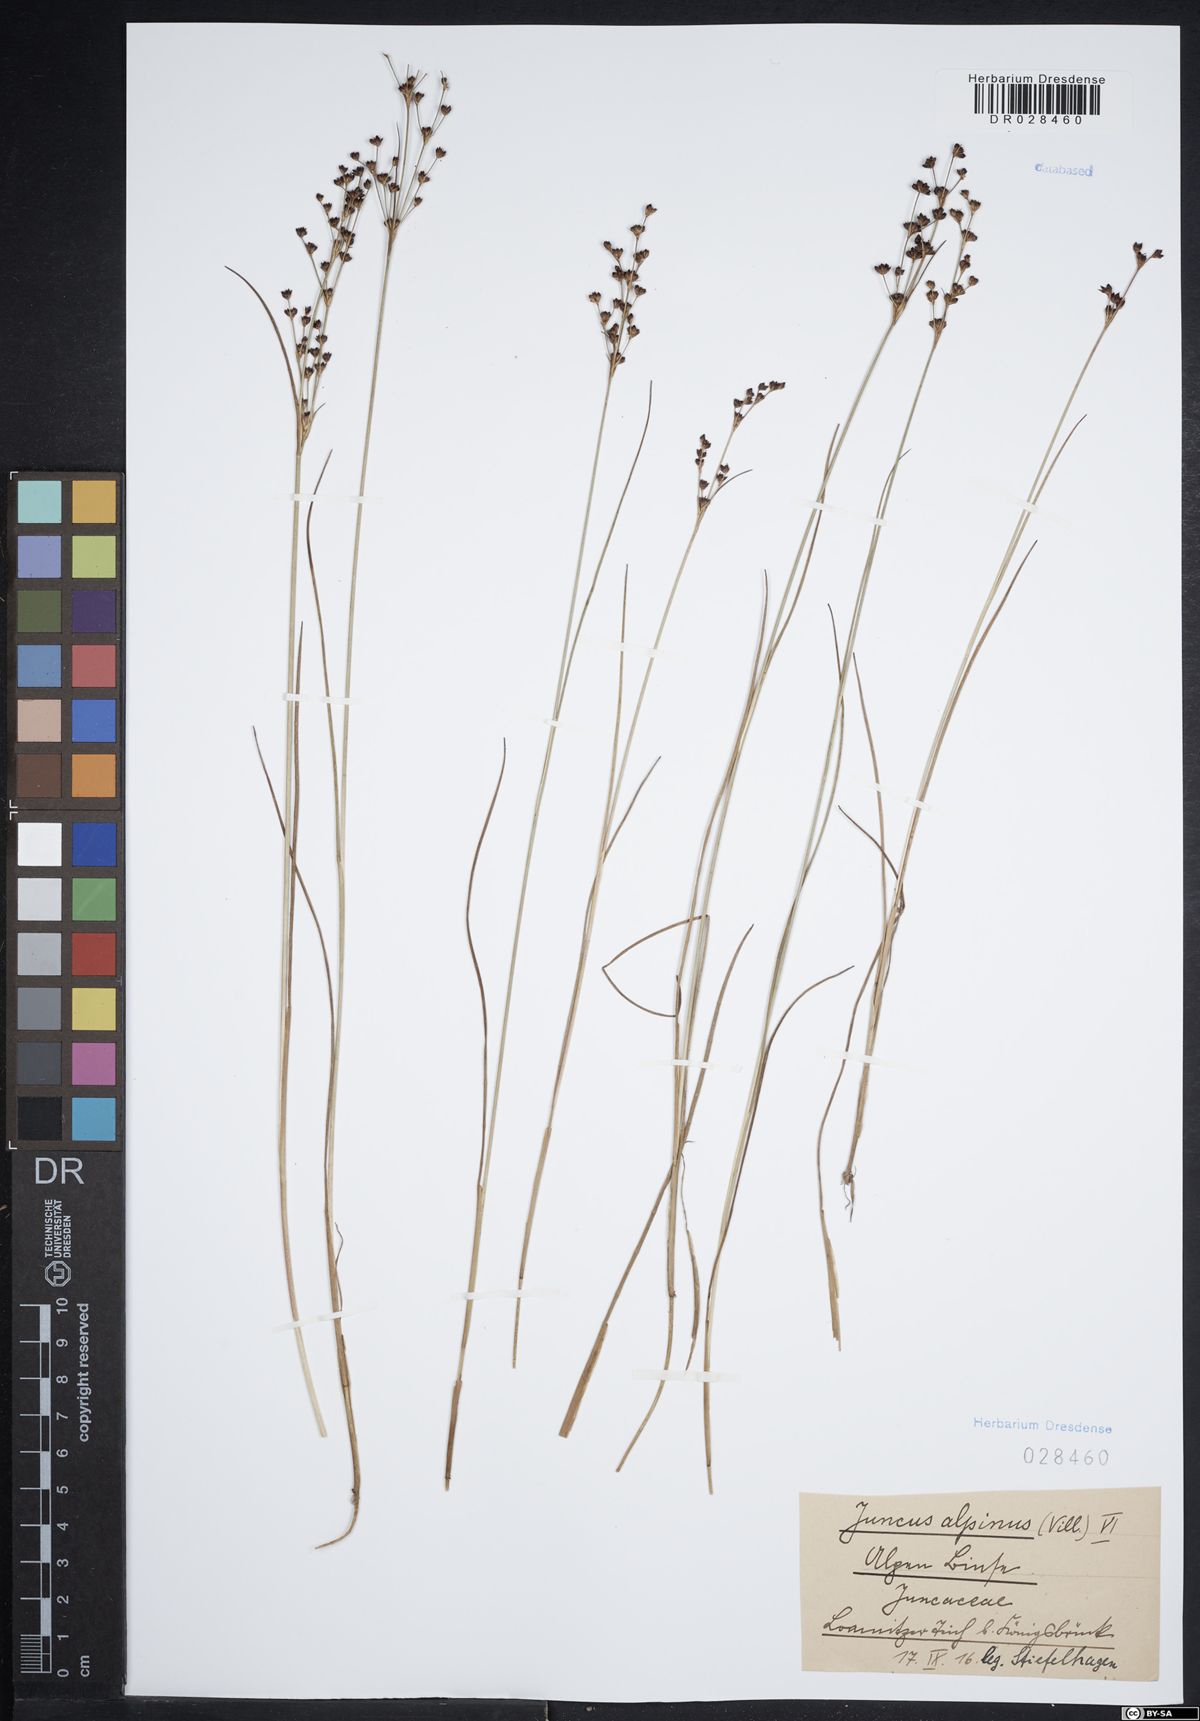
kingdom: Plantae
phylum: Tracheophyta
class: Liliopsida
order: Poales
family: Juncaceae
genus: Juncus
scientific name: Juncus alpinoarticulatus
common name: Alpine rush
